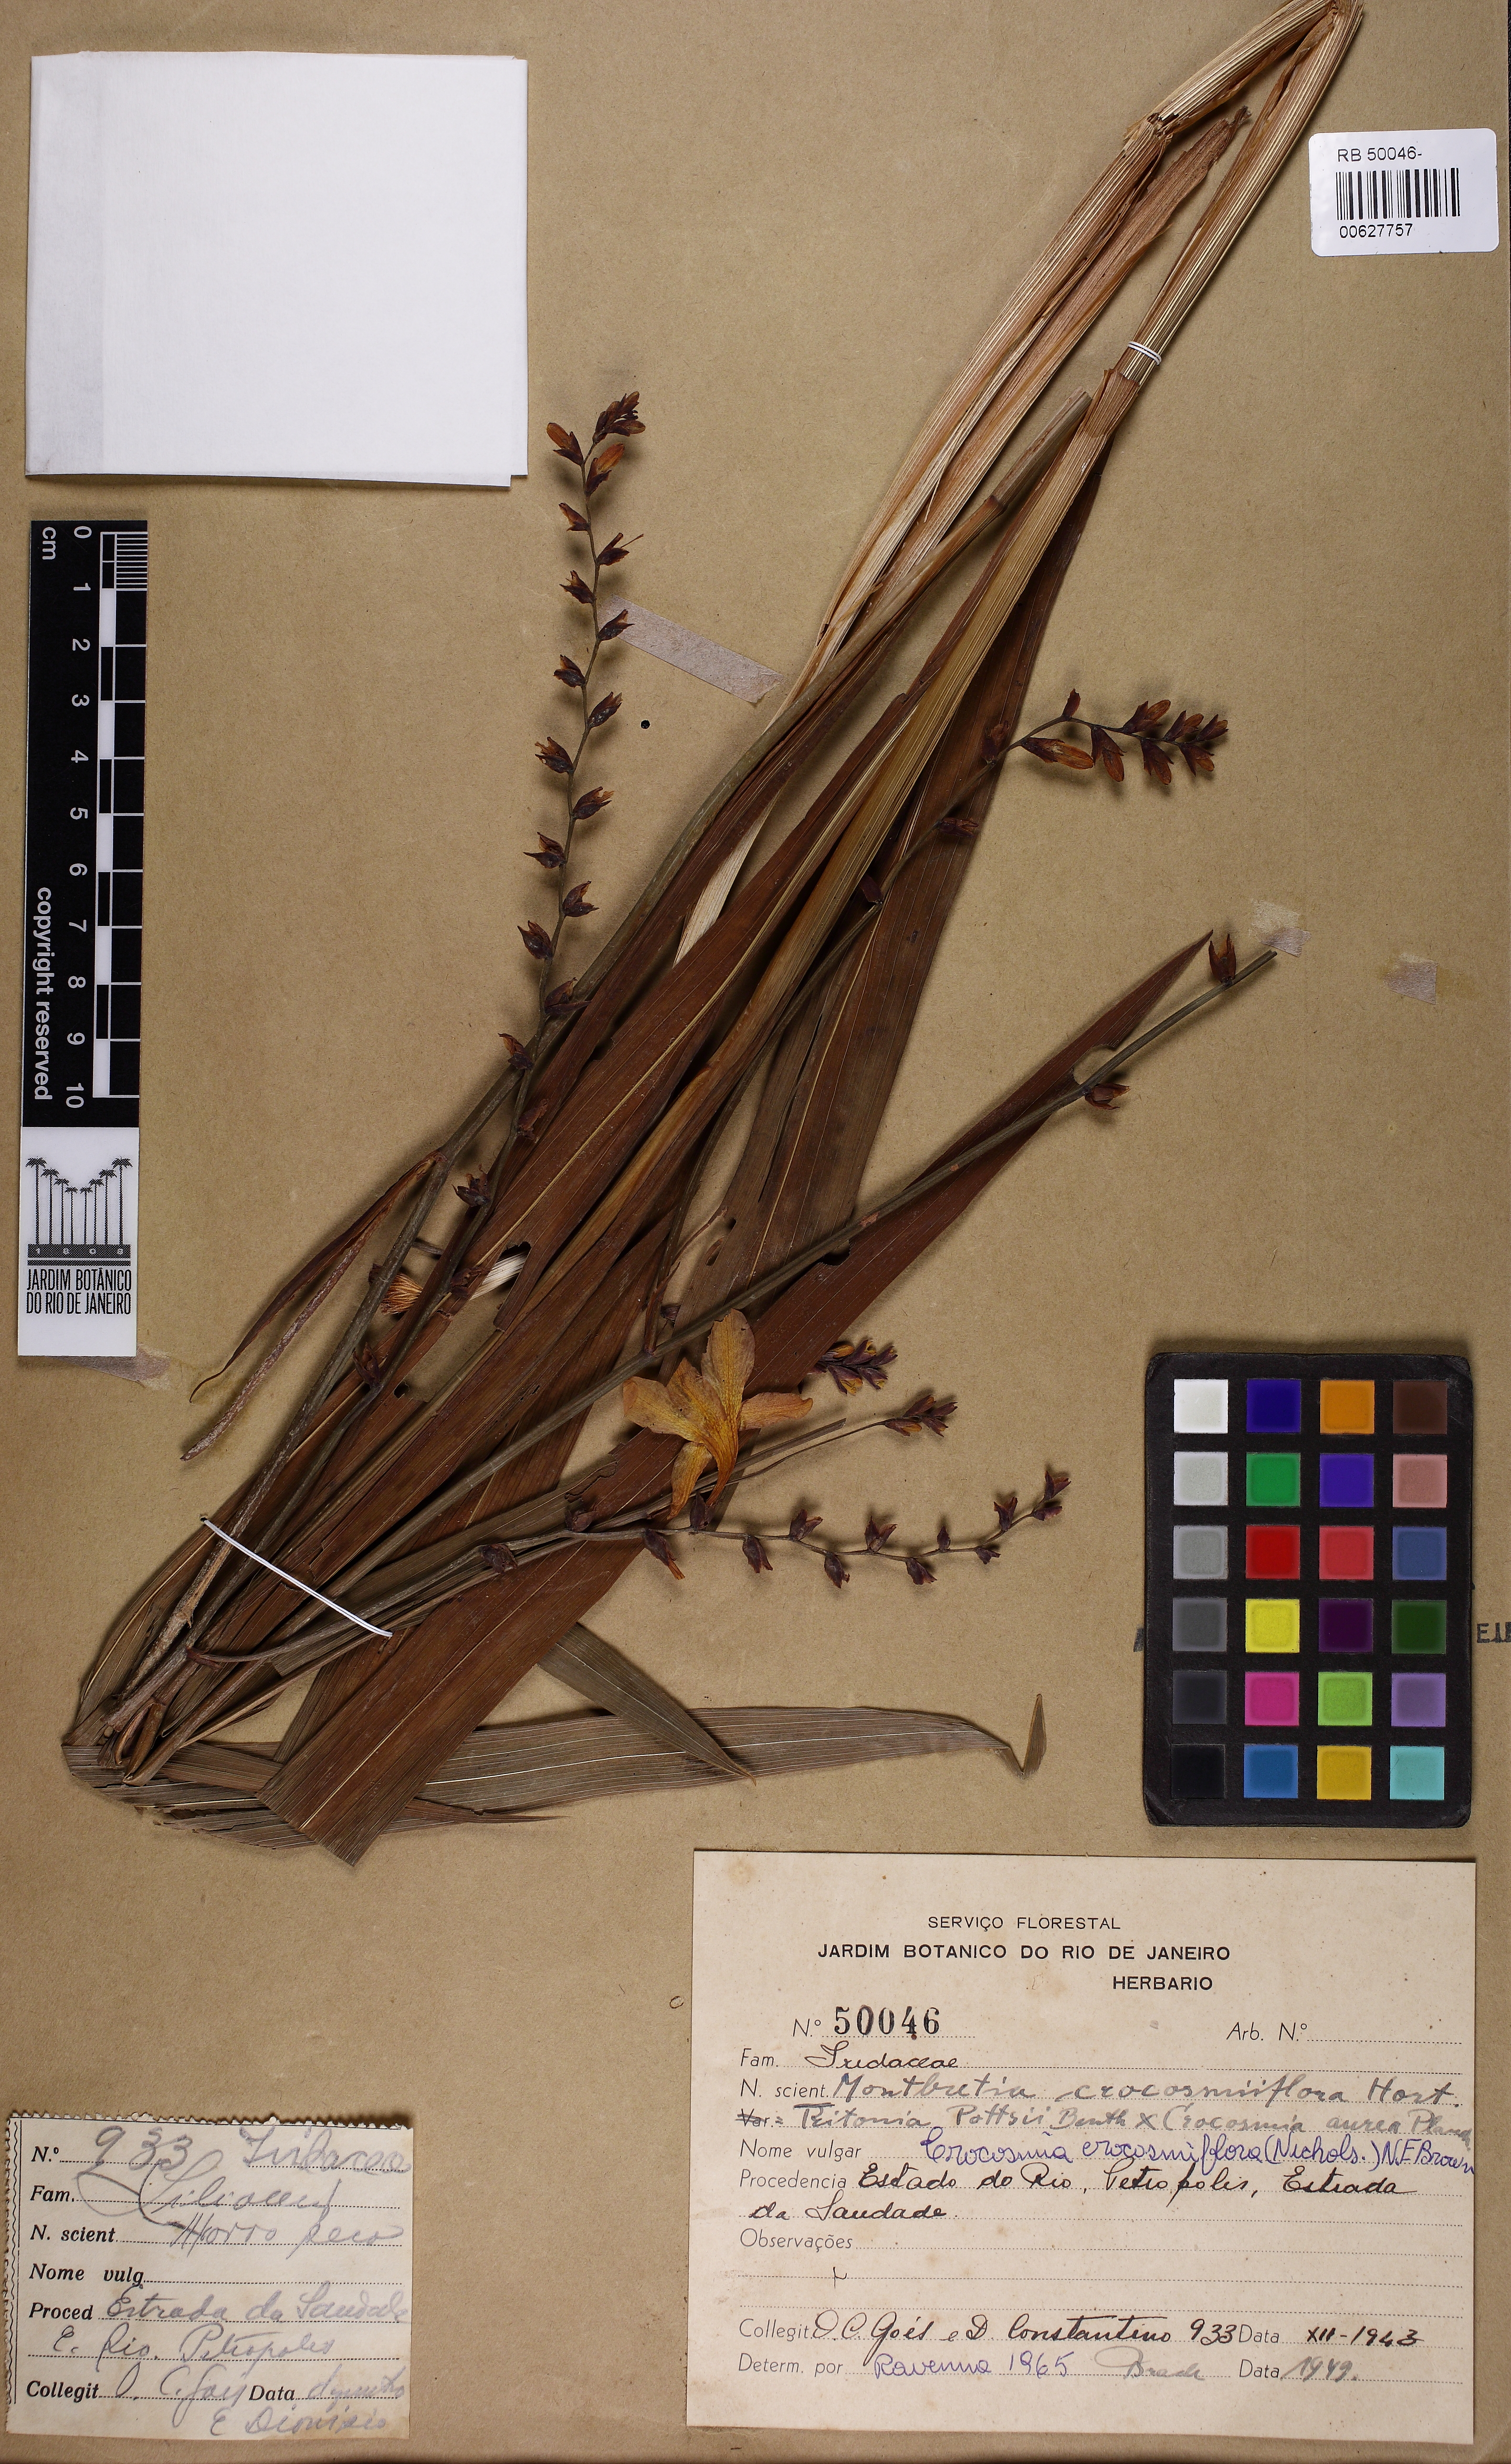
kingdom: Plantae
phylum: Tracheophyta
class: Liliopsida
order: Asparagales
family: Iridaceae
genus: Crocosmia
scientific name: Crocosmia crocosmiiflora
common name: Montbretia
